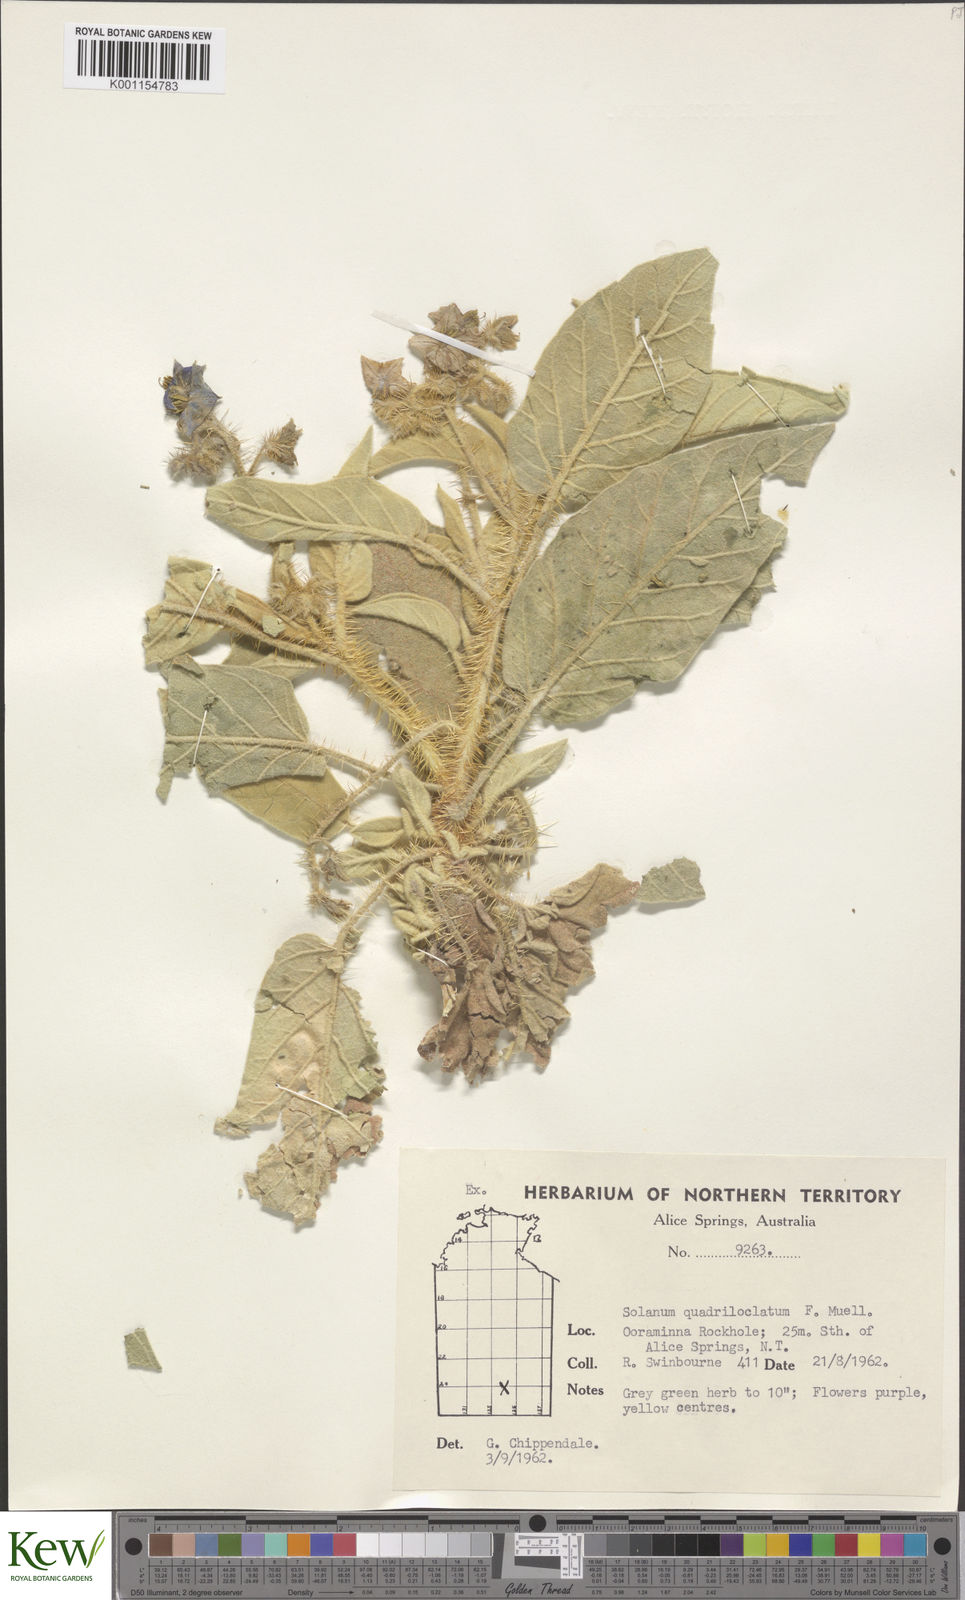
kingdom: Plantae
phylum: Tracheophyta
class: Magnoliopsida
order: Solanales
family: Solanaceae
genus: Solanum
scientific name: Solanum quadriloculatum
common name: Wild tomato
